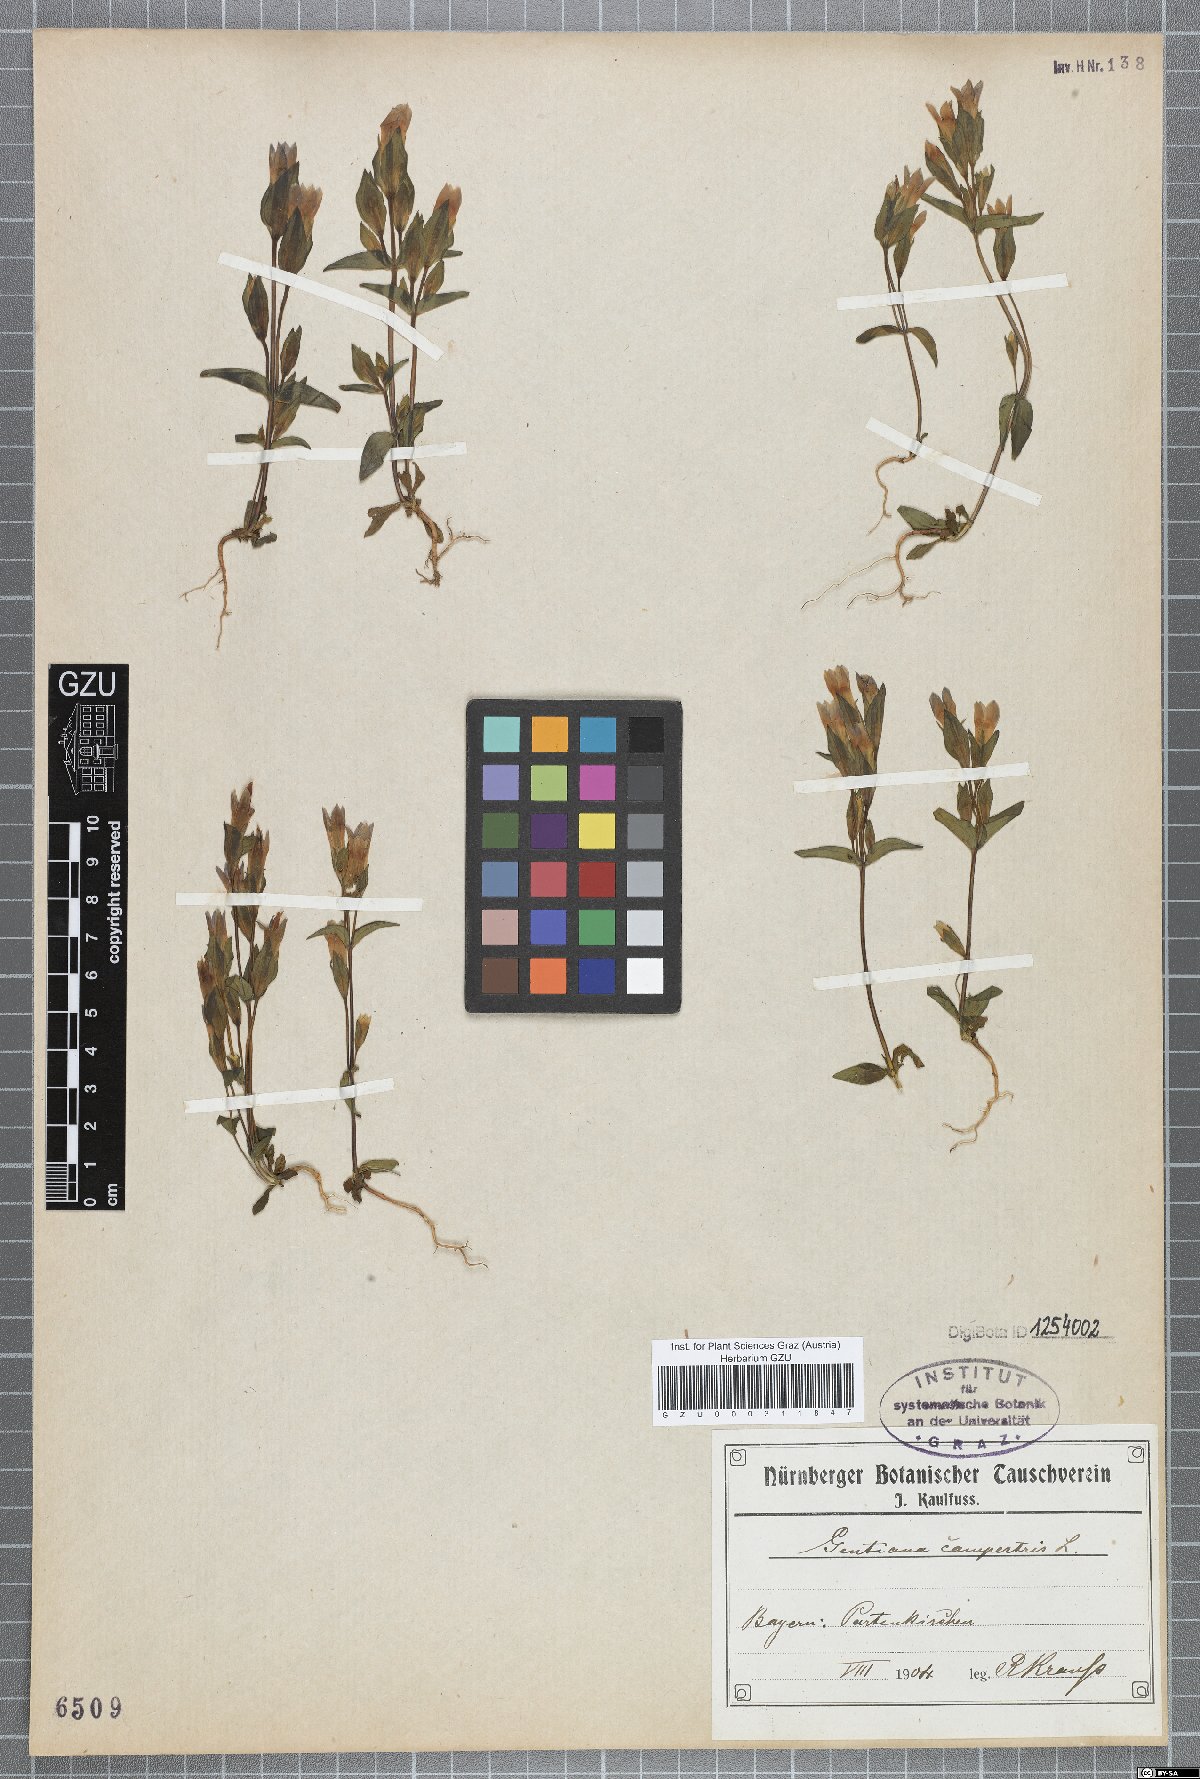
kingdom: Plantae
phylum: Tracheophyta
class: Magnoliopsida
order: Gentianales
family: Gentianaceae
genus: Gentianella
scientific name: Gentianella campestris
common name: Field gentian
